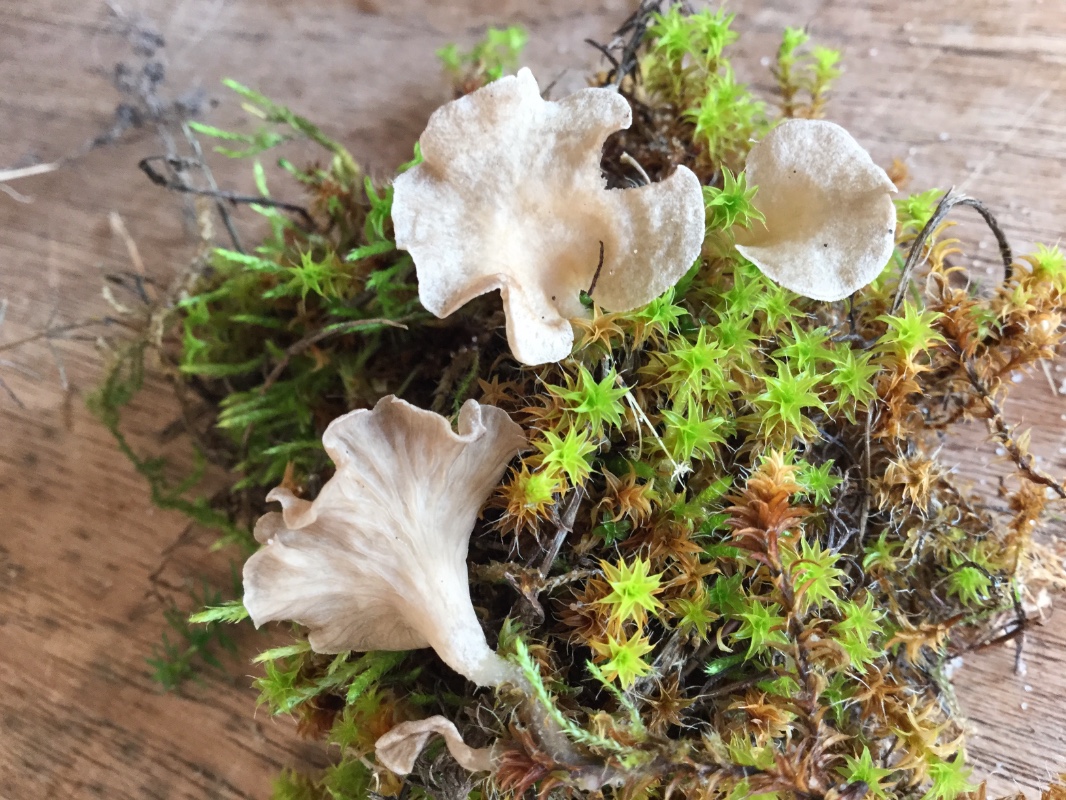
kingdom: Fungi
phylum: Basidiomycota
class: Agaricomycetes
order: Agaricales
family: Hygrophoraceae
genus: Arrhenia
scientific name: Arrhenia spathulata
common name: skæv fontænehat
